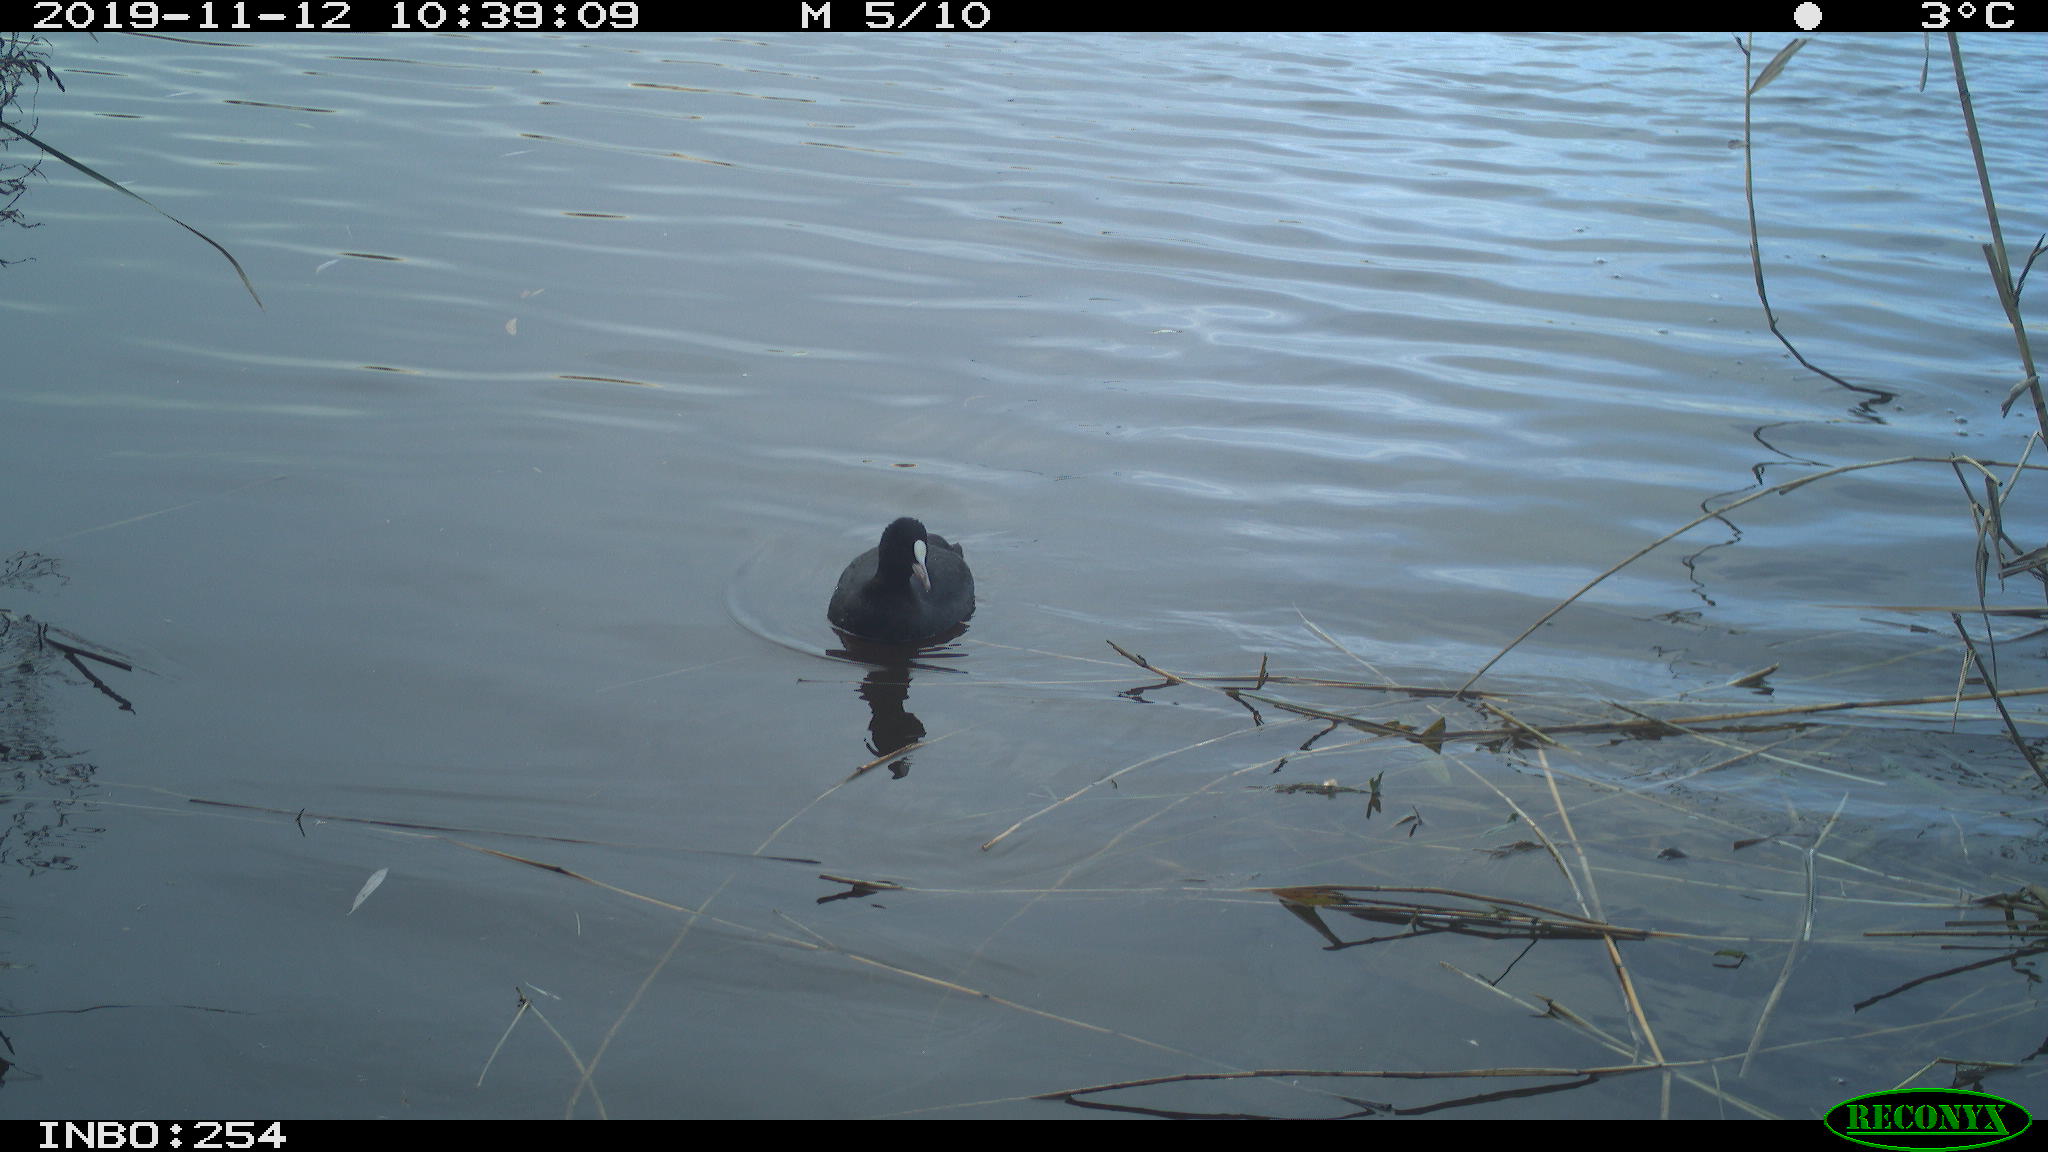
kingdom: Animalia
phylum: Chordata
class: Aves
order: Gruiformes
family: Rallidae
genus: Fulica
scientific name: Fulica atra
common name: Eurasian coot
